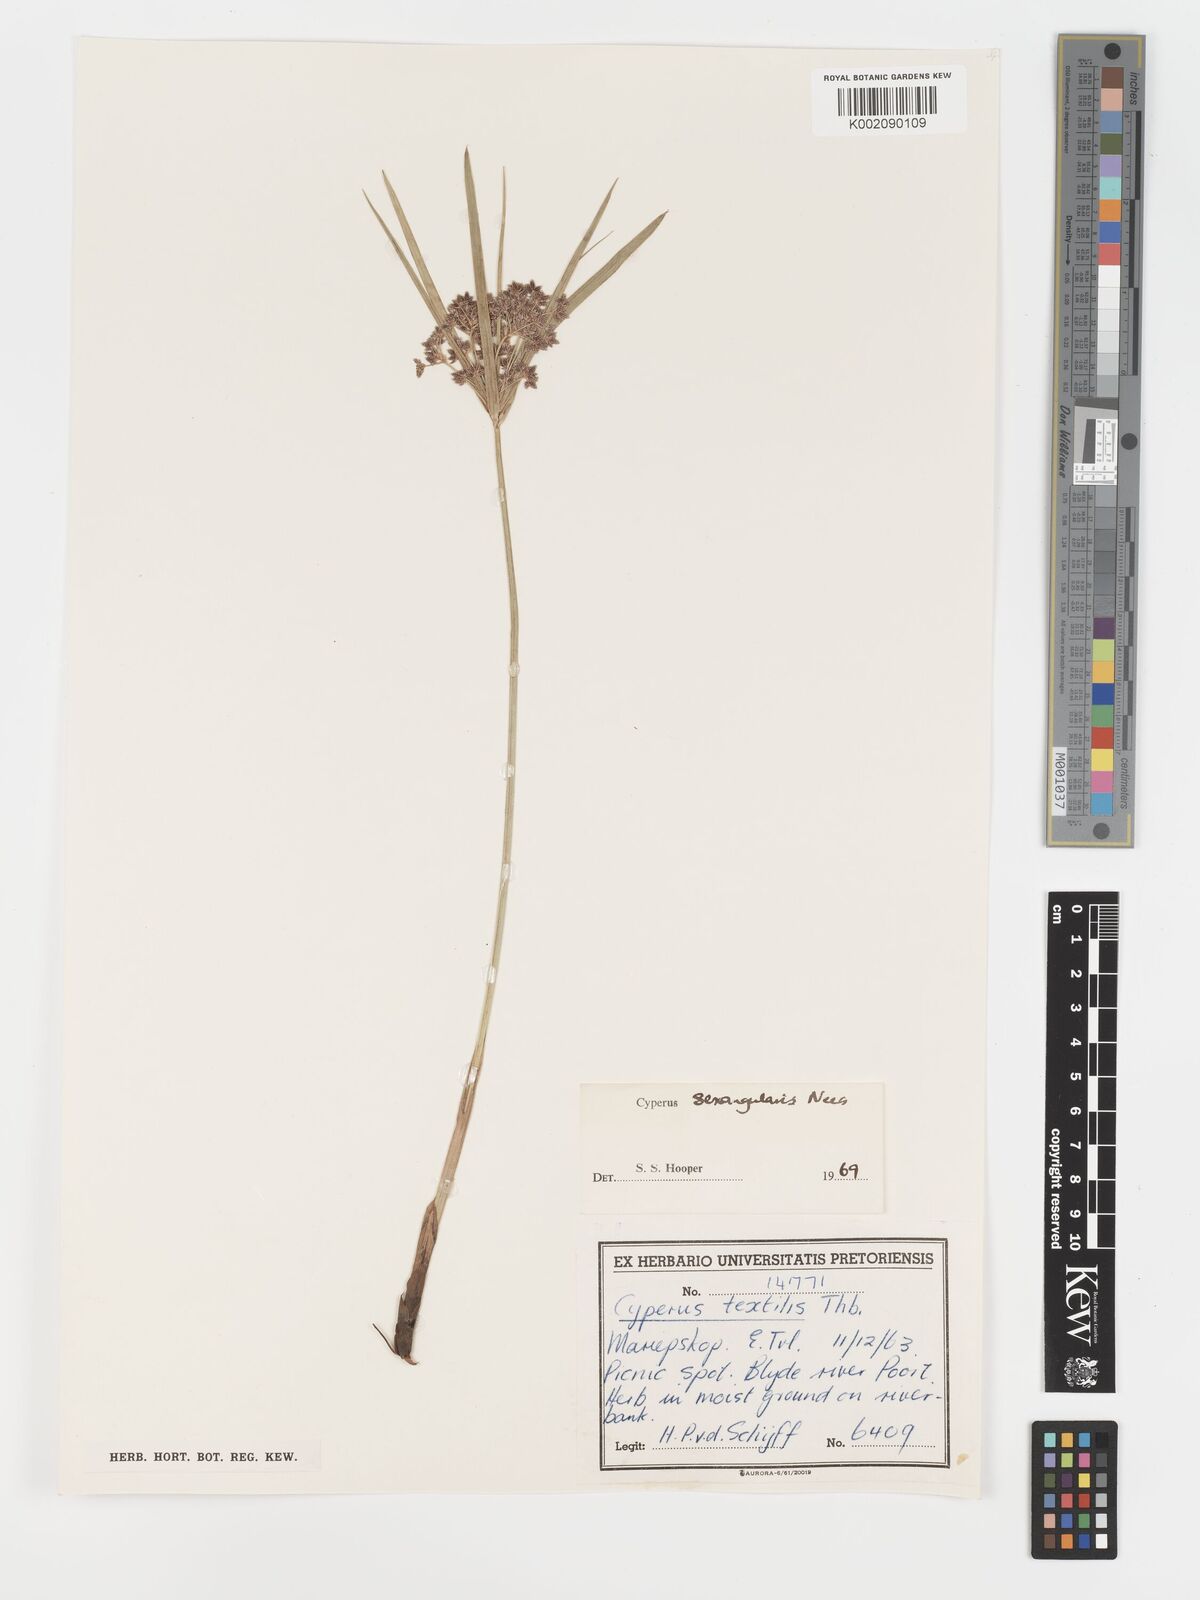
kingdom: Plantae
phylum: Tracheophyta
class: Liliopsida
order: Poales
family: Cyperaceae
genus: Cyperus
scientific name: Cyperus sexangularis
